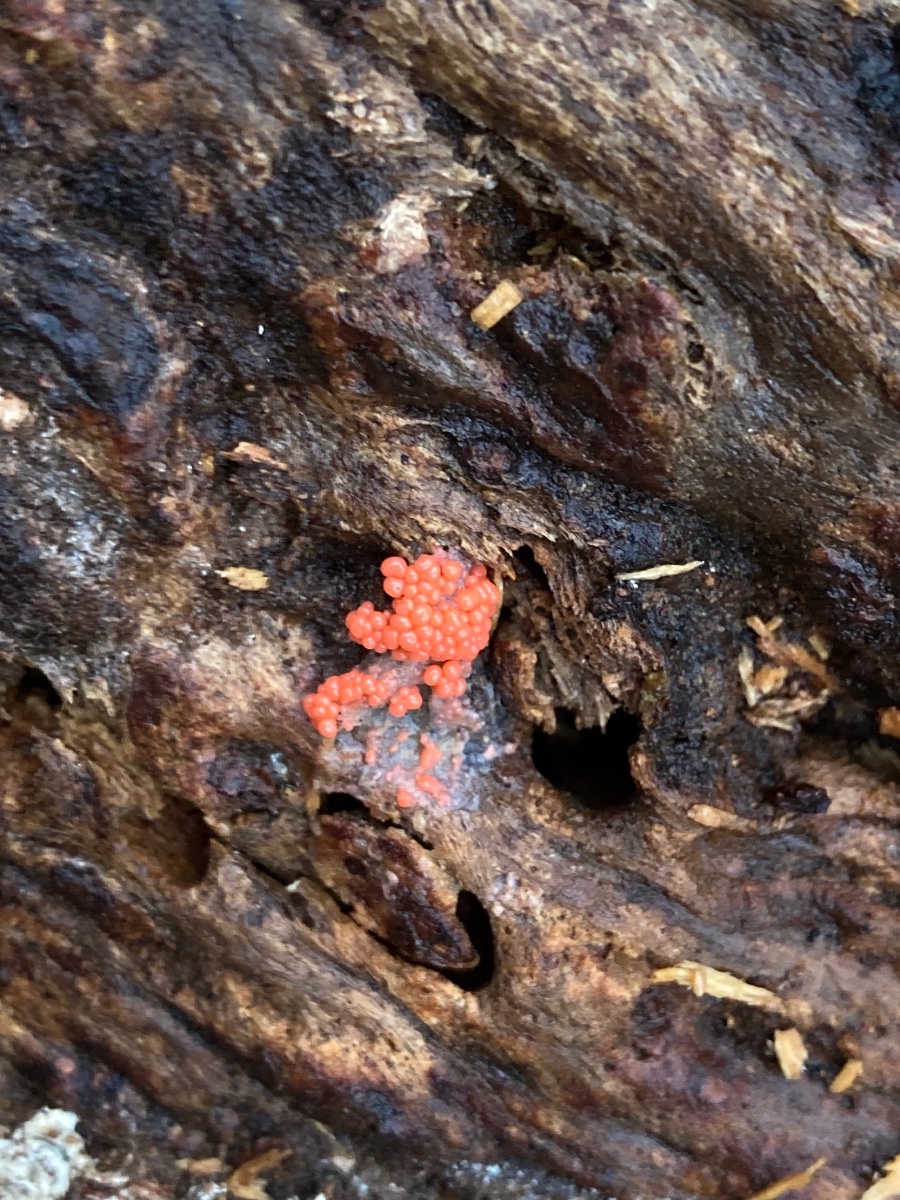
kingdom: Protozoa
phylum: Mycetozoa
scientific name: Mycetozoa
